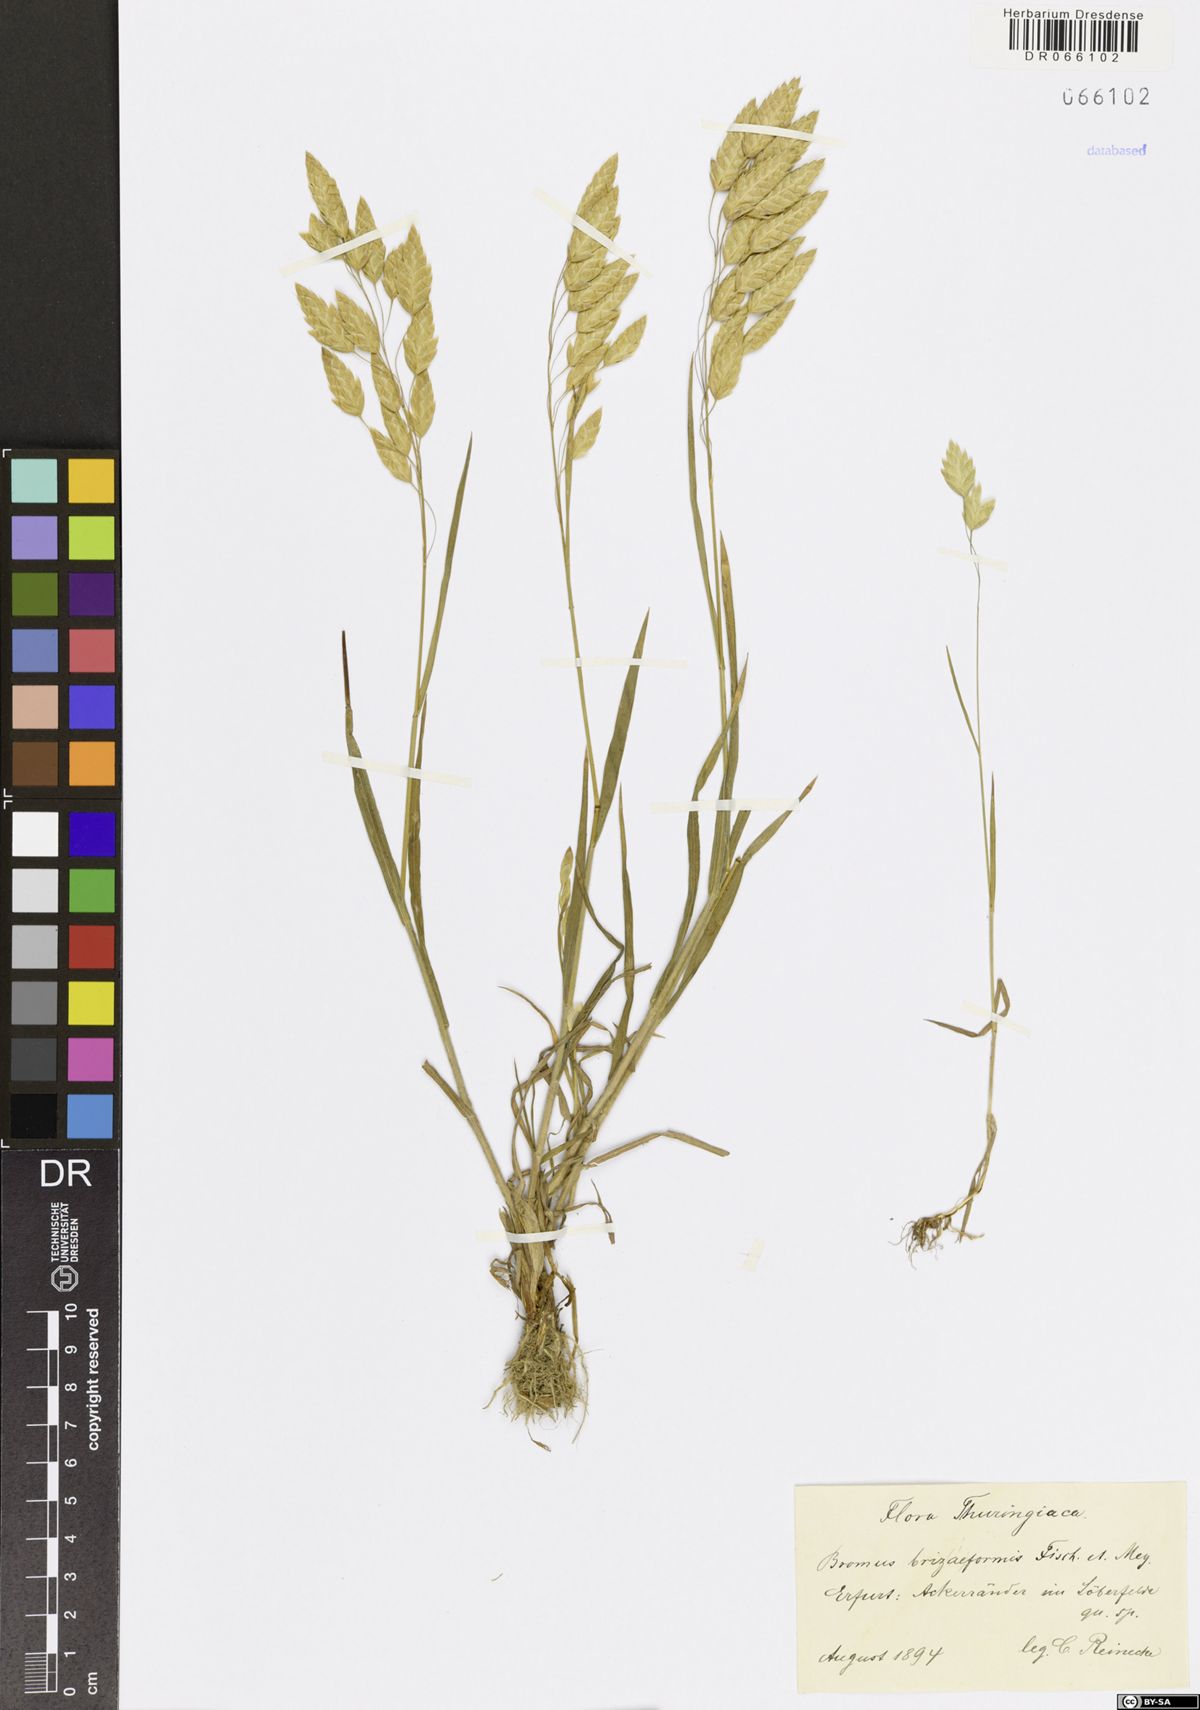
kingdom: Plantae
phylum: Tracheophyta
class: Liliopsida
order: Poales
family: Poaceae
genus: Bromus
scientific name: Bromus briziformis
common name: Rattlesnake brome
